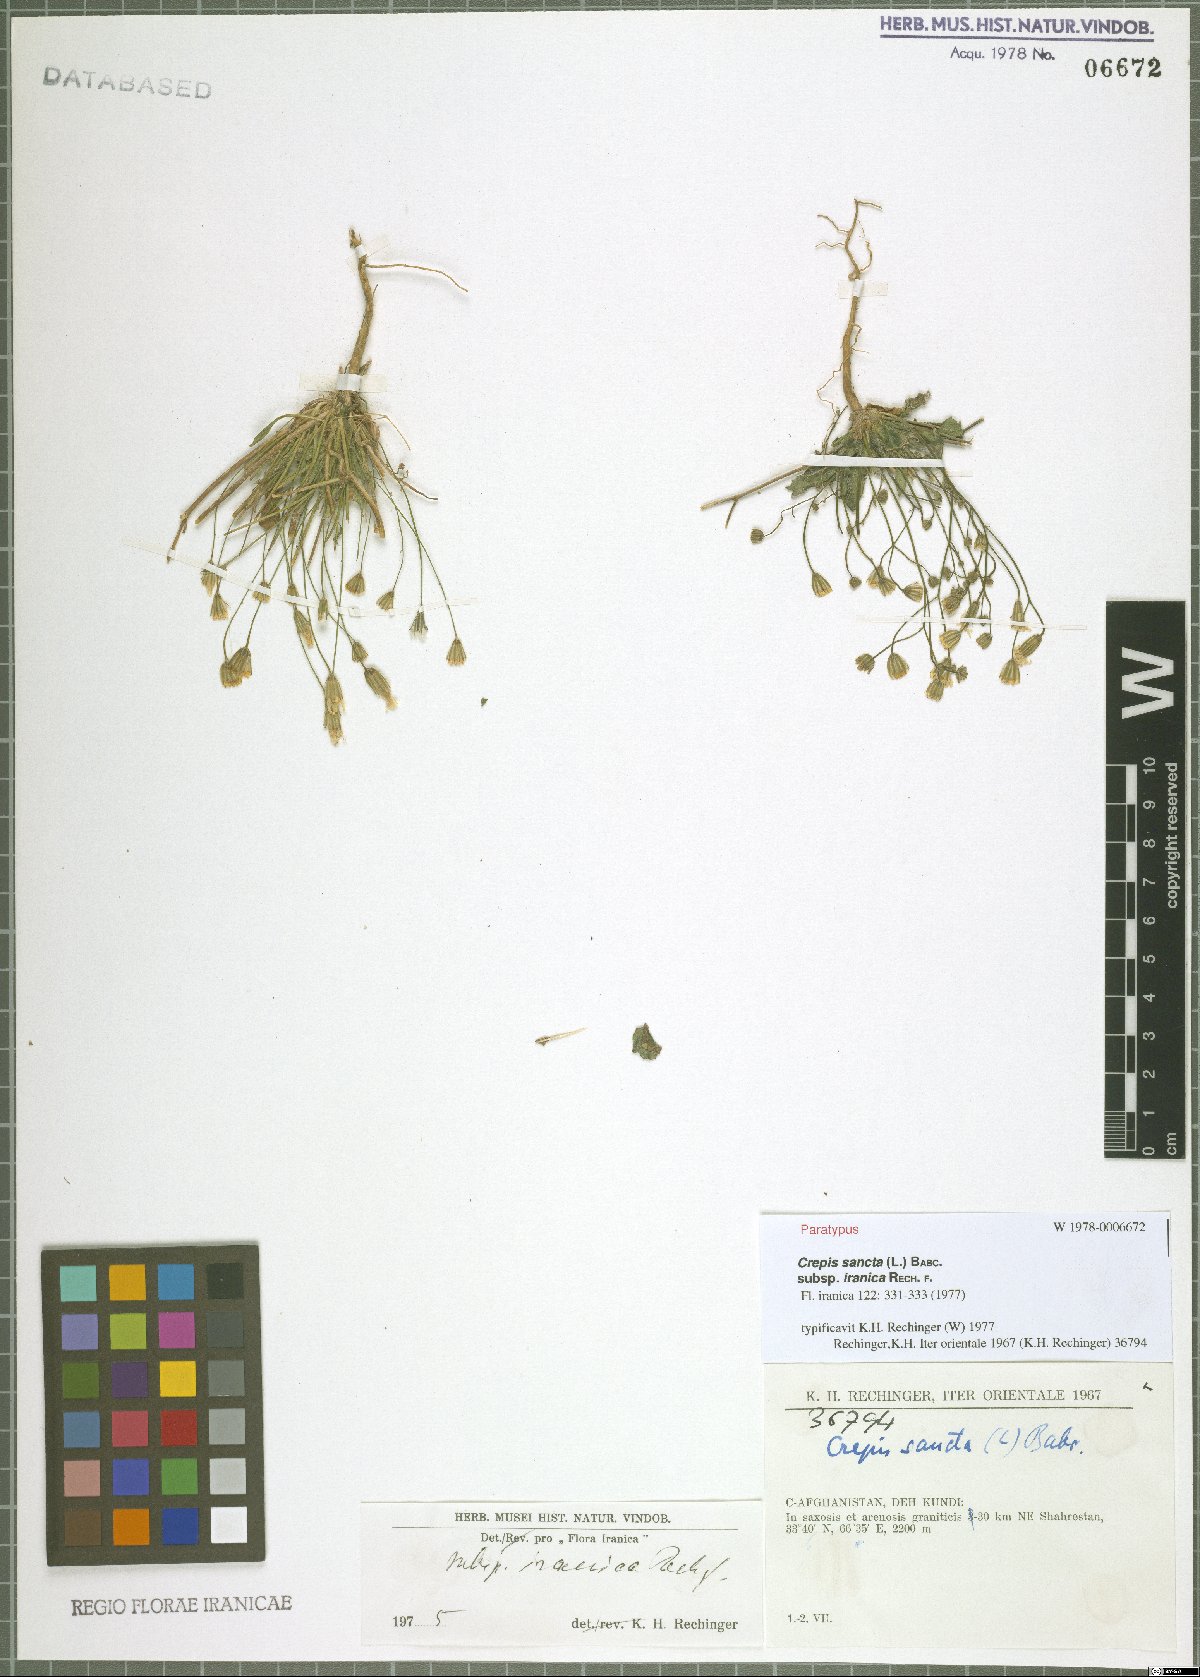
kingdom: Plantae
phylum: Tracheophyta
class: Magnoliopsida
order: Asterales
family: Asteraceae
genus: Crepis
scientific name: Crepis sancta
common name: Hawk's-beard
